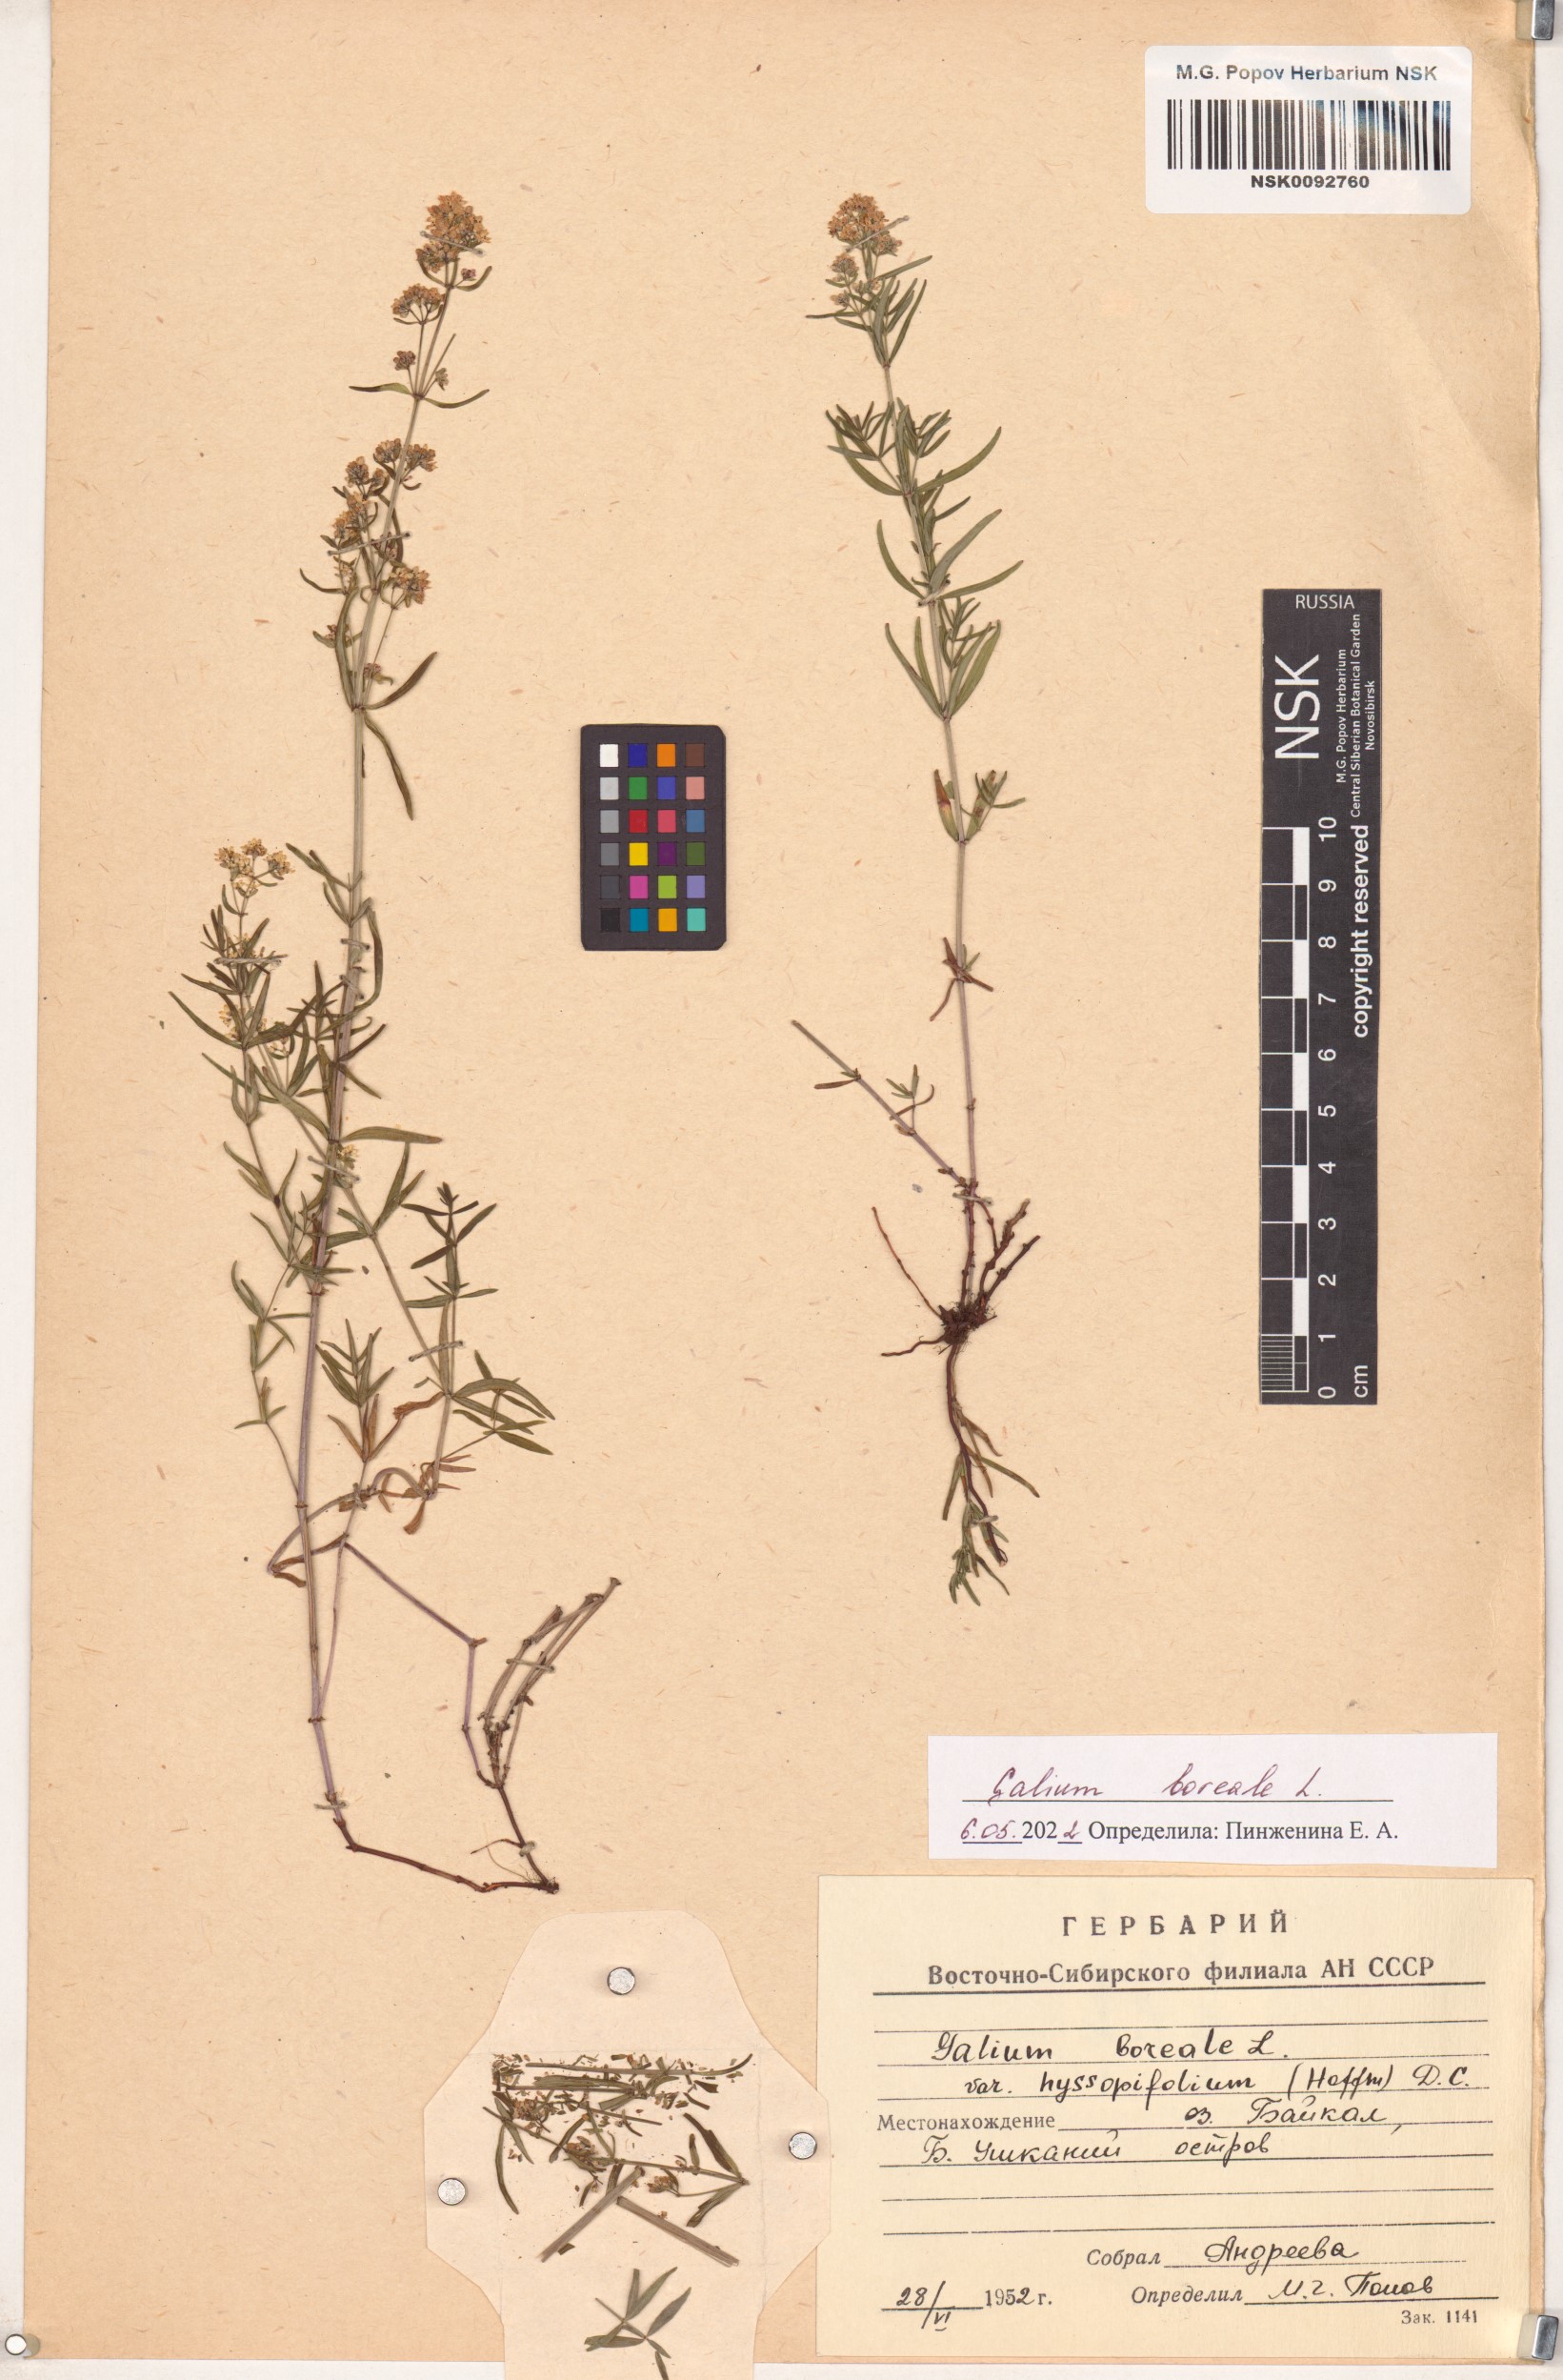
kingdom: Plantae
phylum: Tracheophyta
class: Magnoliopsida
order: Gentianales
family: Rubiaceae
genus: Galium
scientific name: Galium boreale
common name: Northern bedstraw
